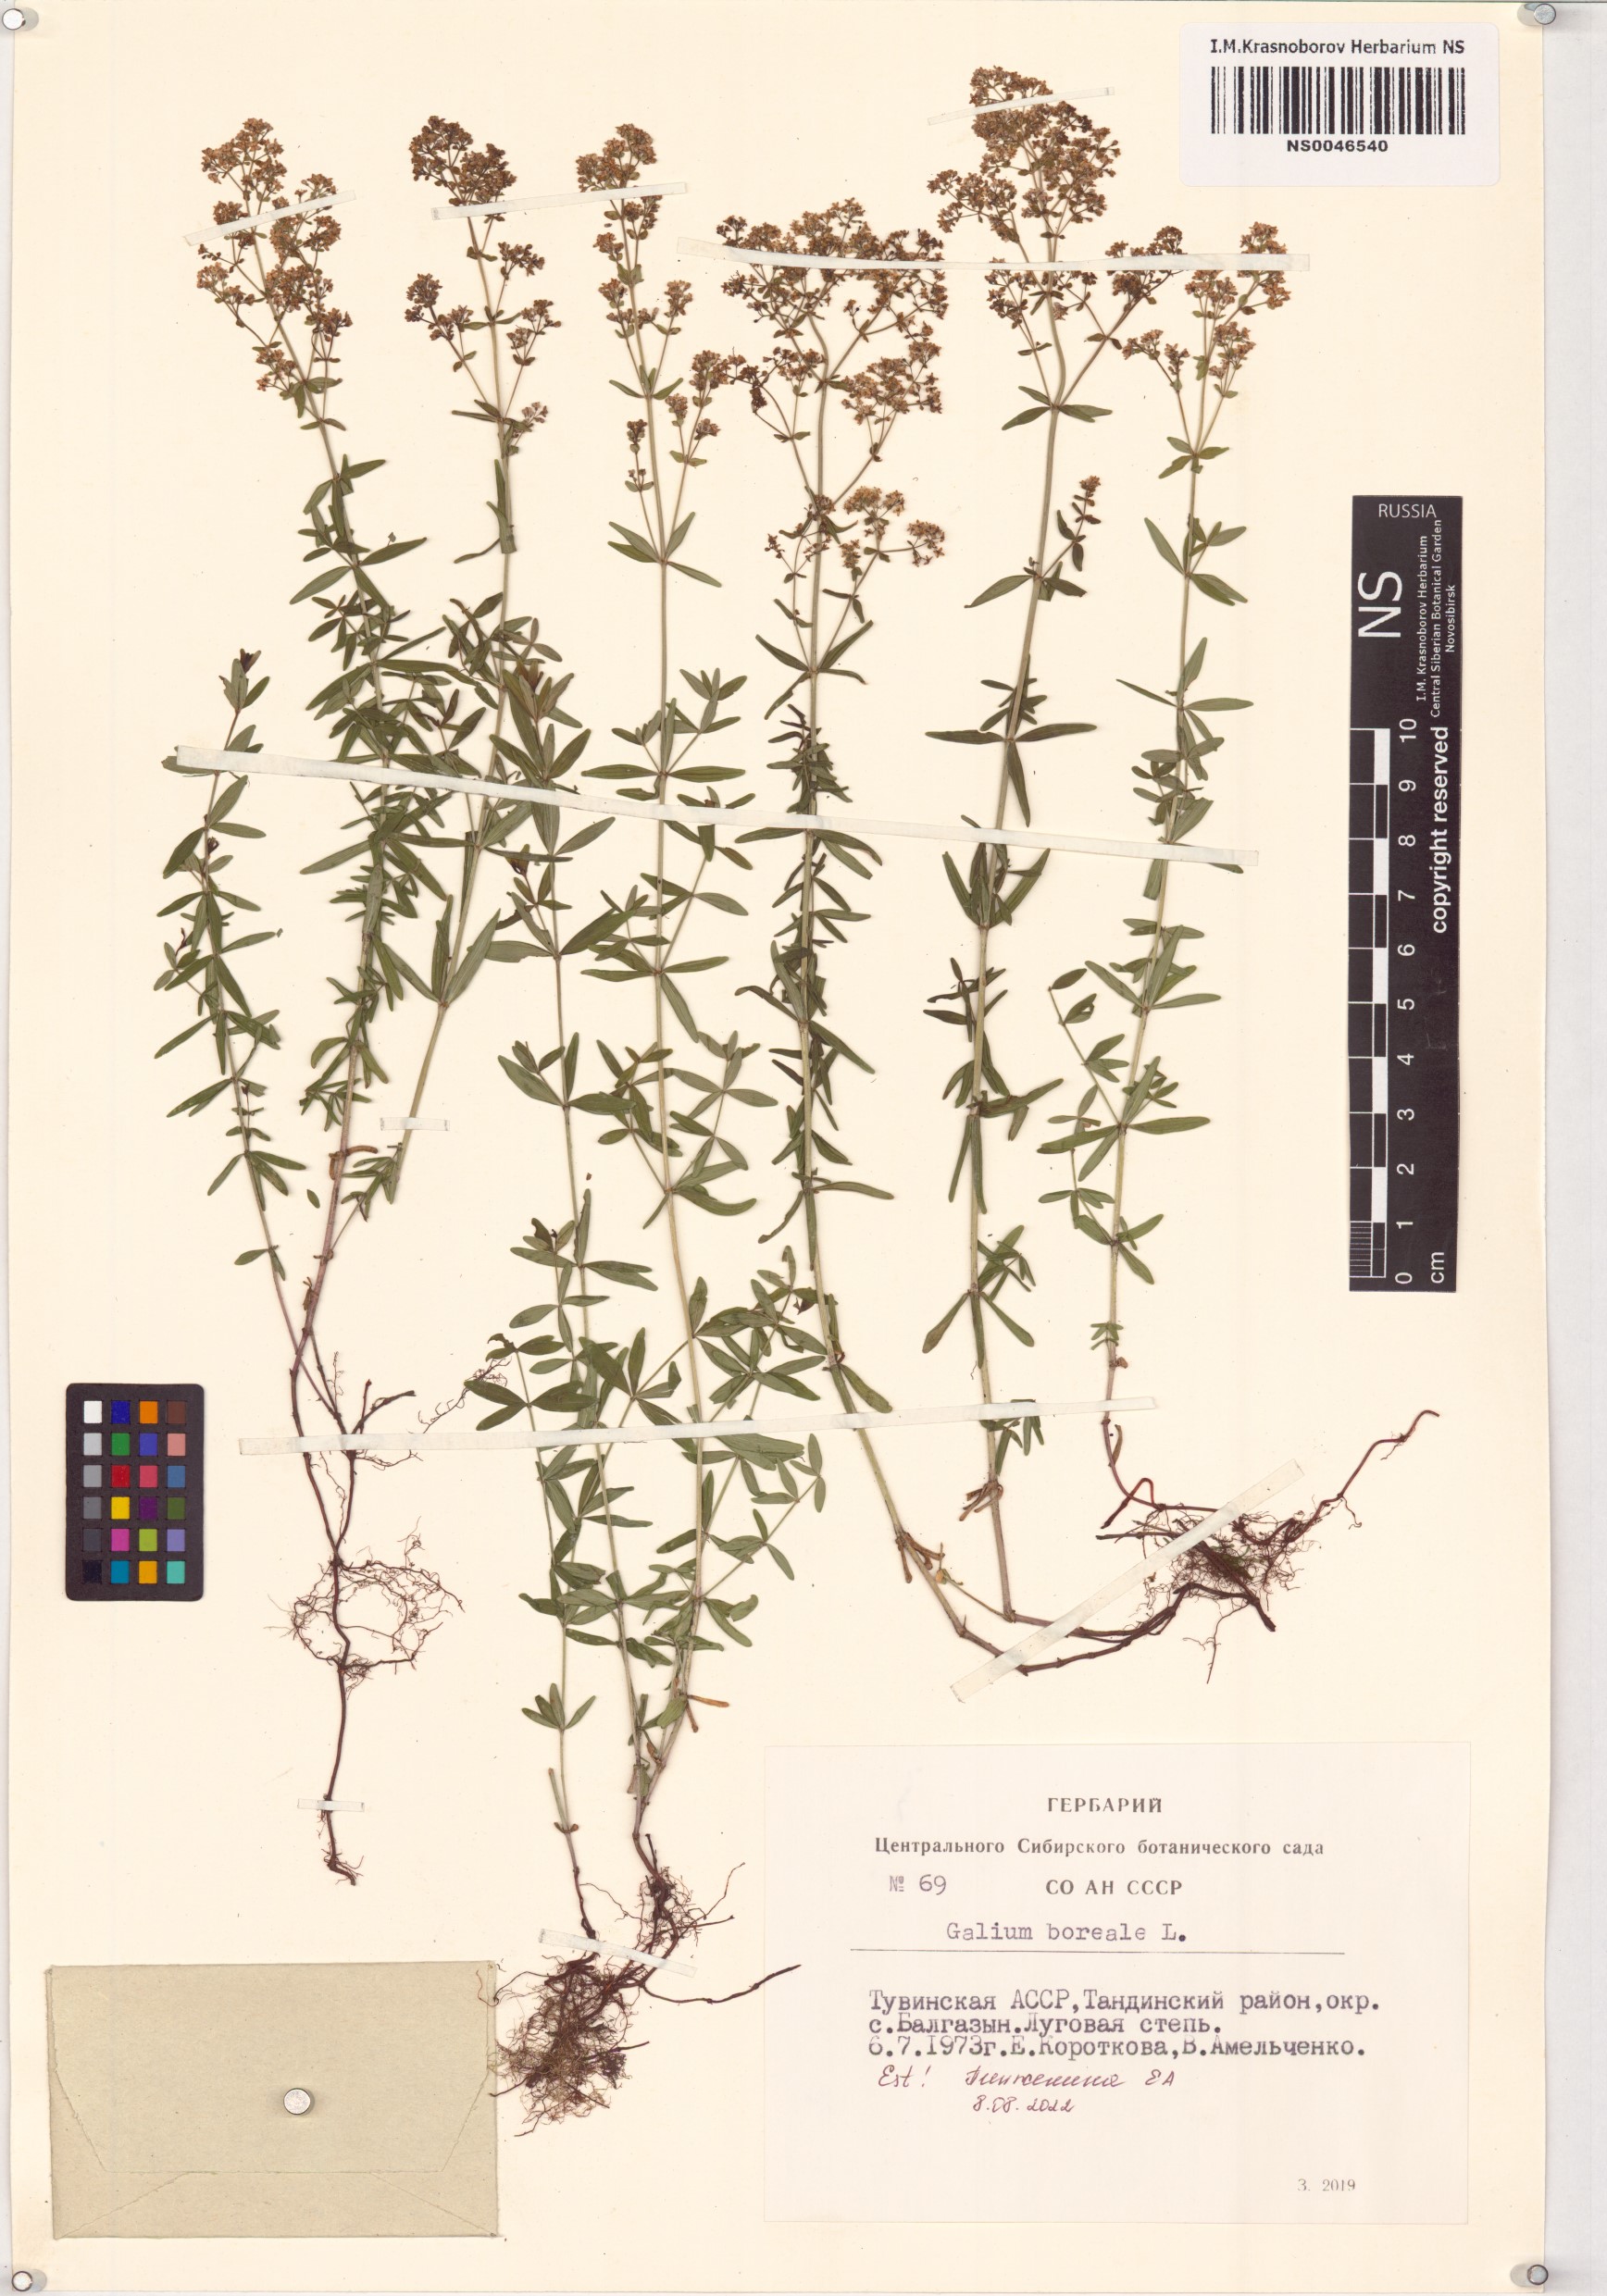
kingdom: Plantae
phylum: Tracheophyta
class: Magnoliopsida
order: Gentianales
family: Rubiaceae
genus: Galium
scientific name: Galium boreale
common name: Northern bedstraw
